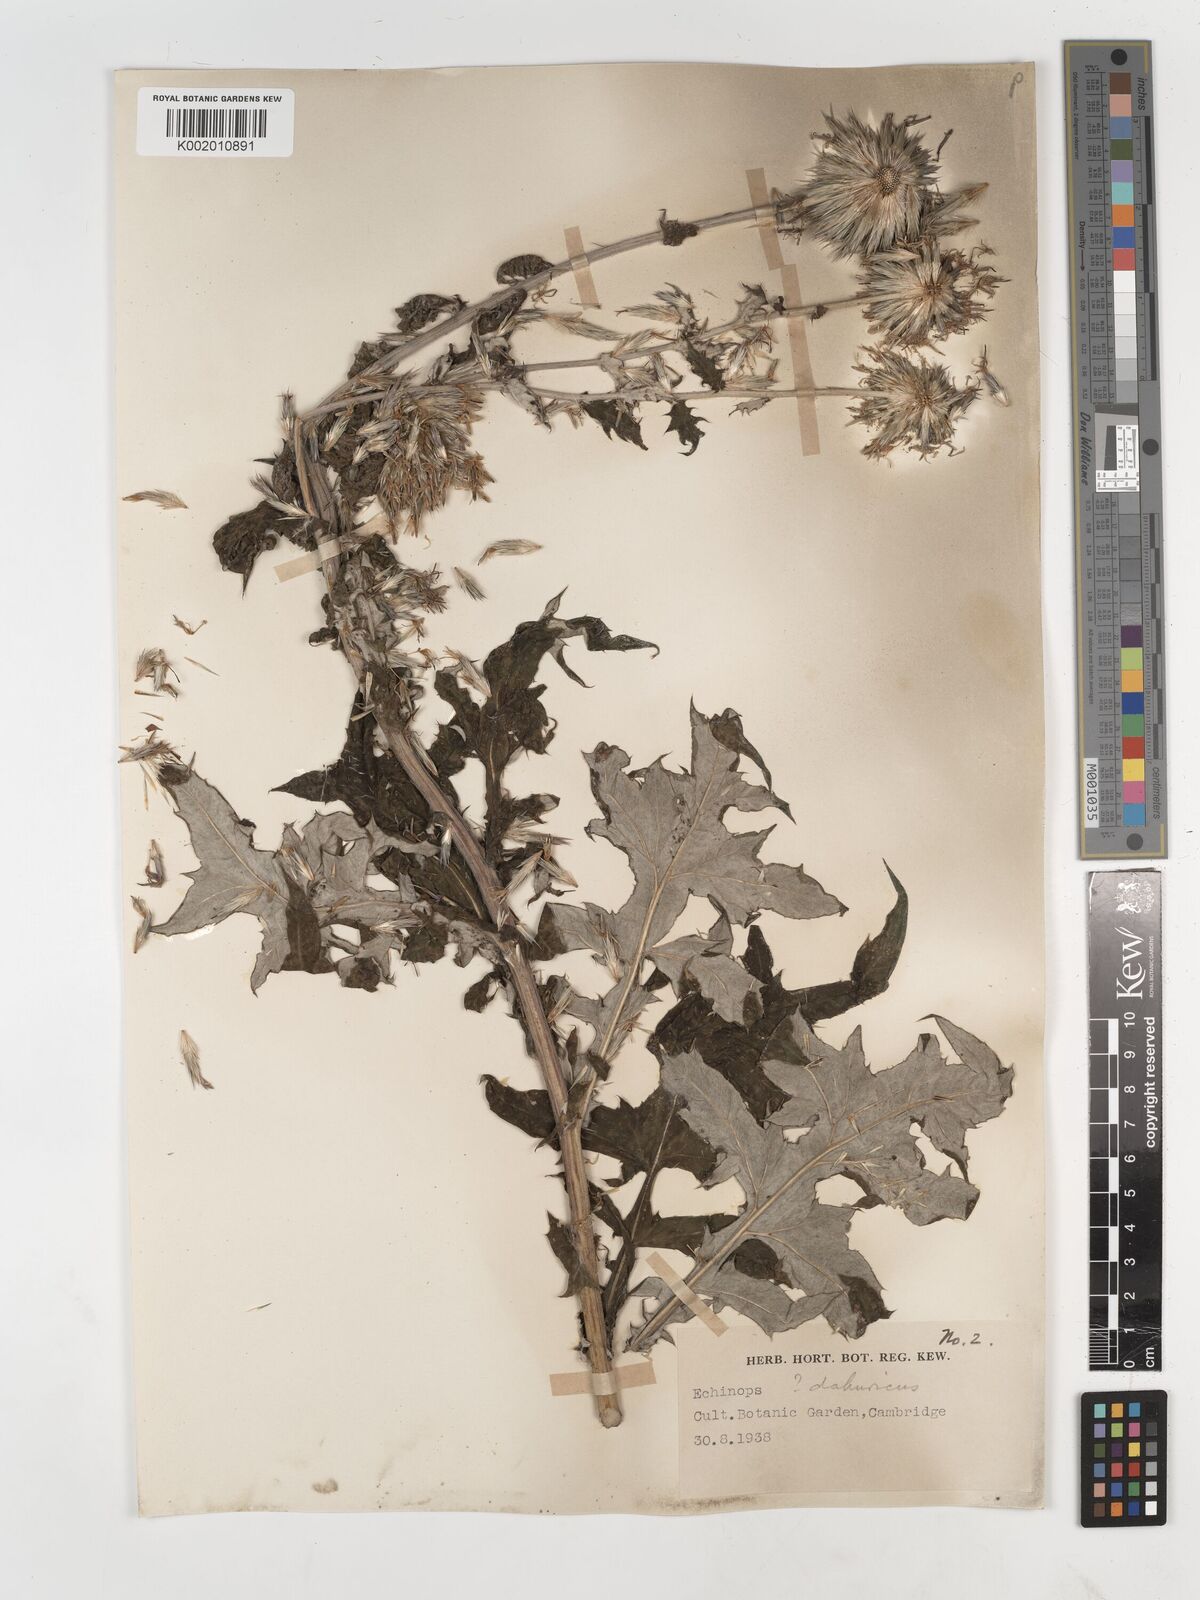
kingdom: Plantae
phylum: Tracheophyta
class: Magnoliopsida
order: Asterales
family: Asteraceae
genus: Echinops
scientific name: Echinops humilis
